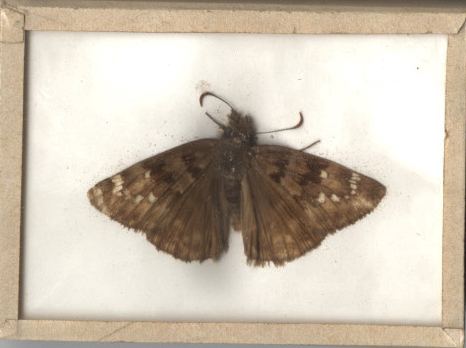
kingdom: Animalia
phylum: Arthropoda
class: Insecta
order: Lepidoptera
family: Hesperiidae
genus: Erynnis
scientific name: Erynnis horatius
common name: Horace's Duskywing
